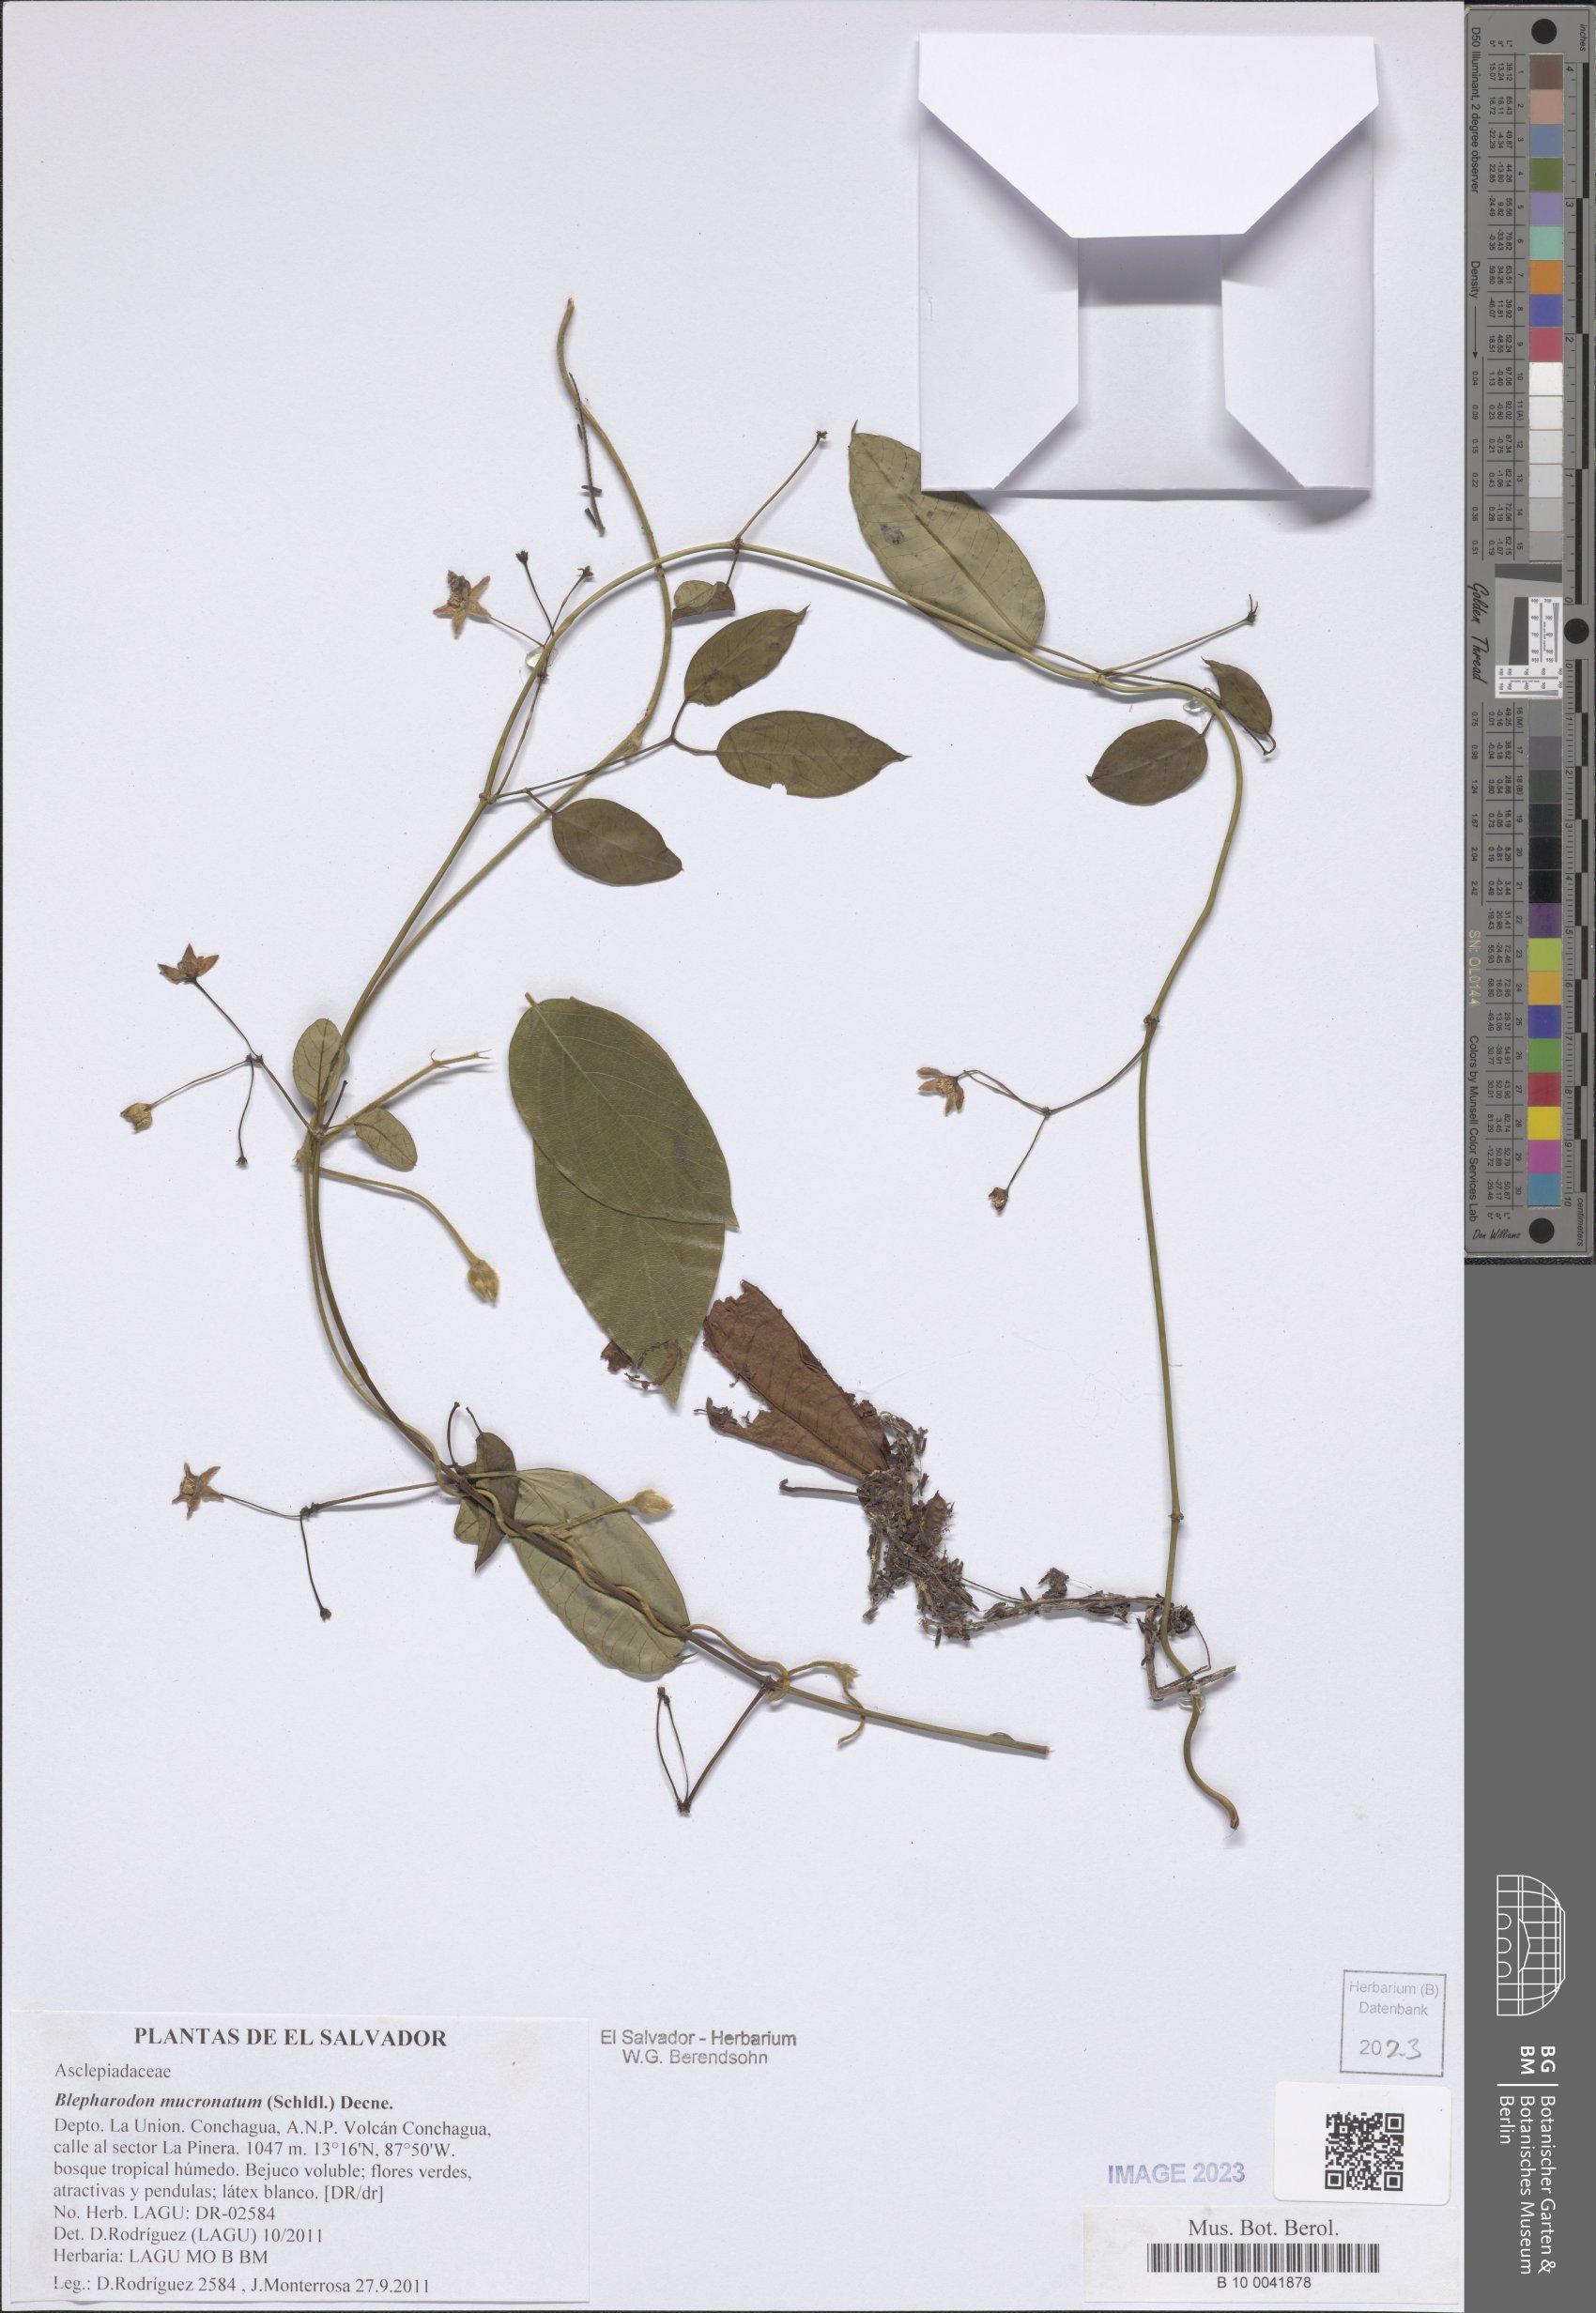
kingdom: Plantae
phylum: Tracheophyta
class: Magnoliopsida
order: Gentianales
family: Apocynaceae
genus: Vailia
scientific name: Vailia anomala
